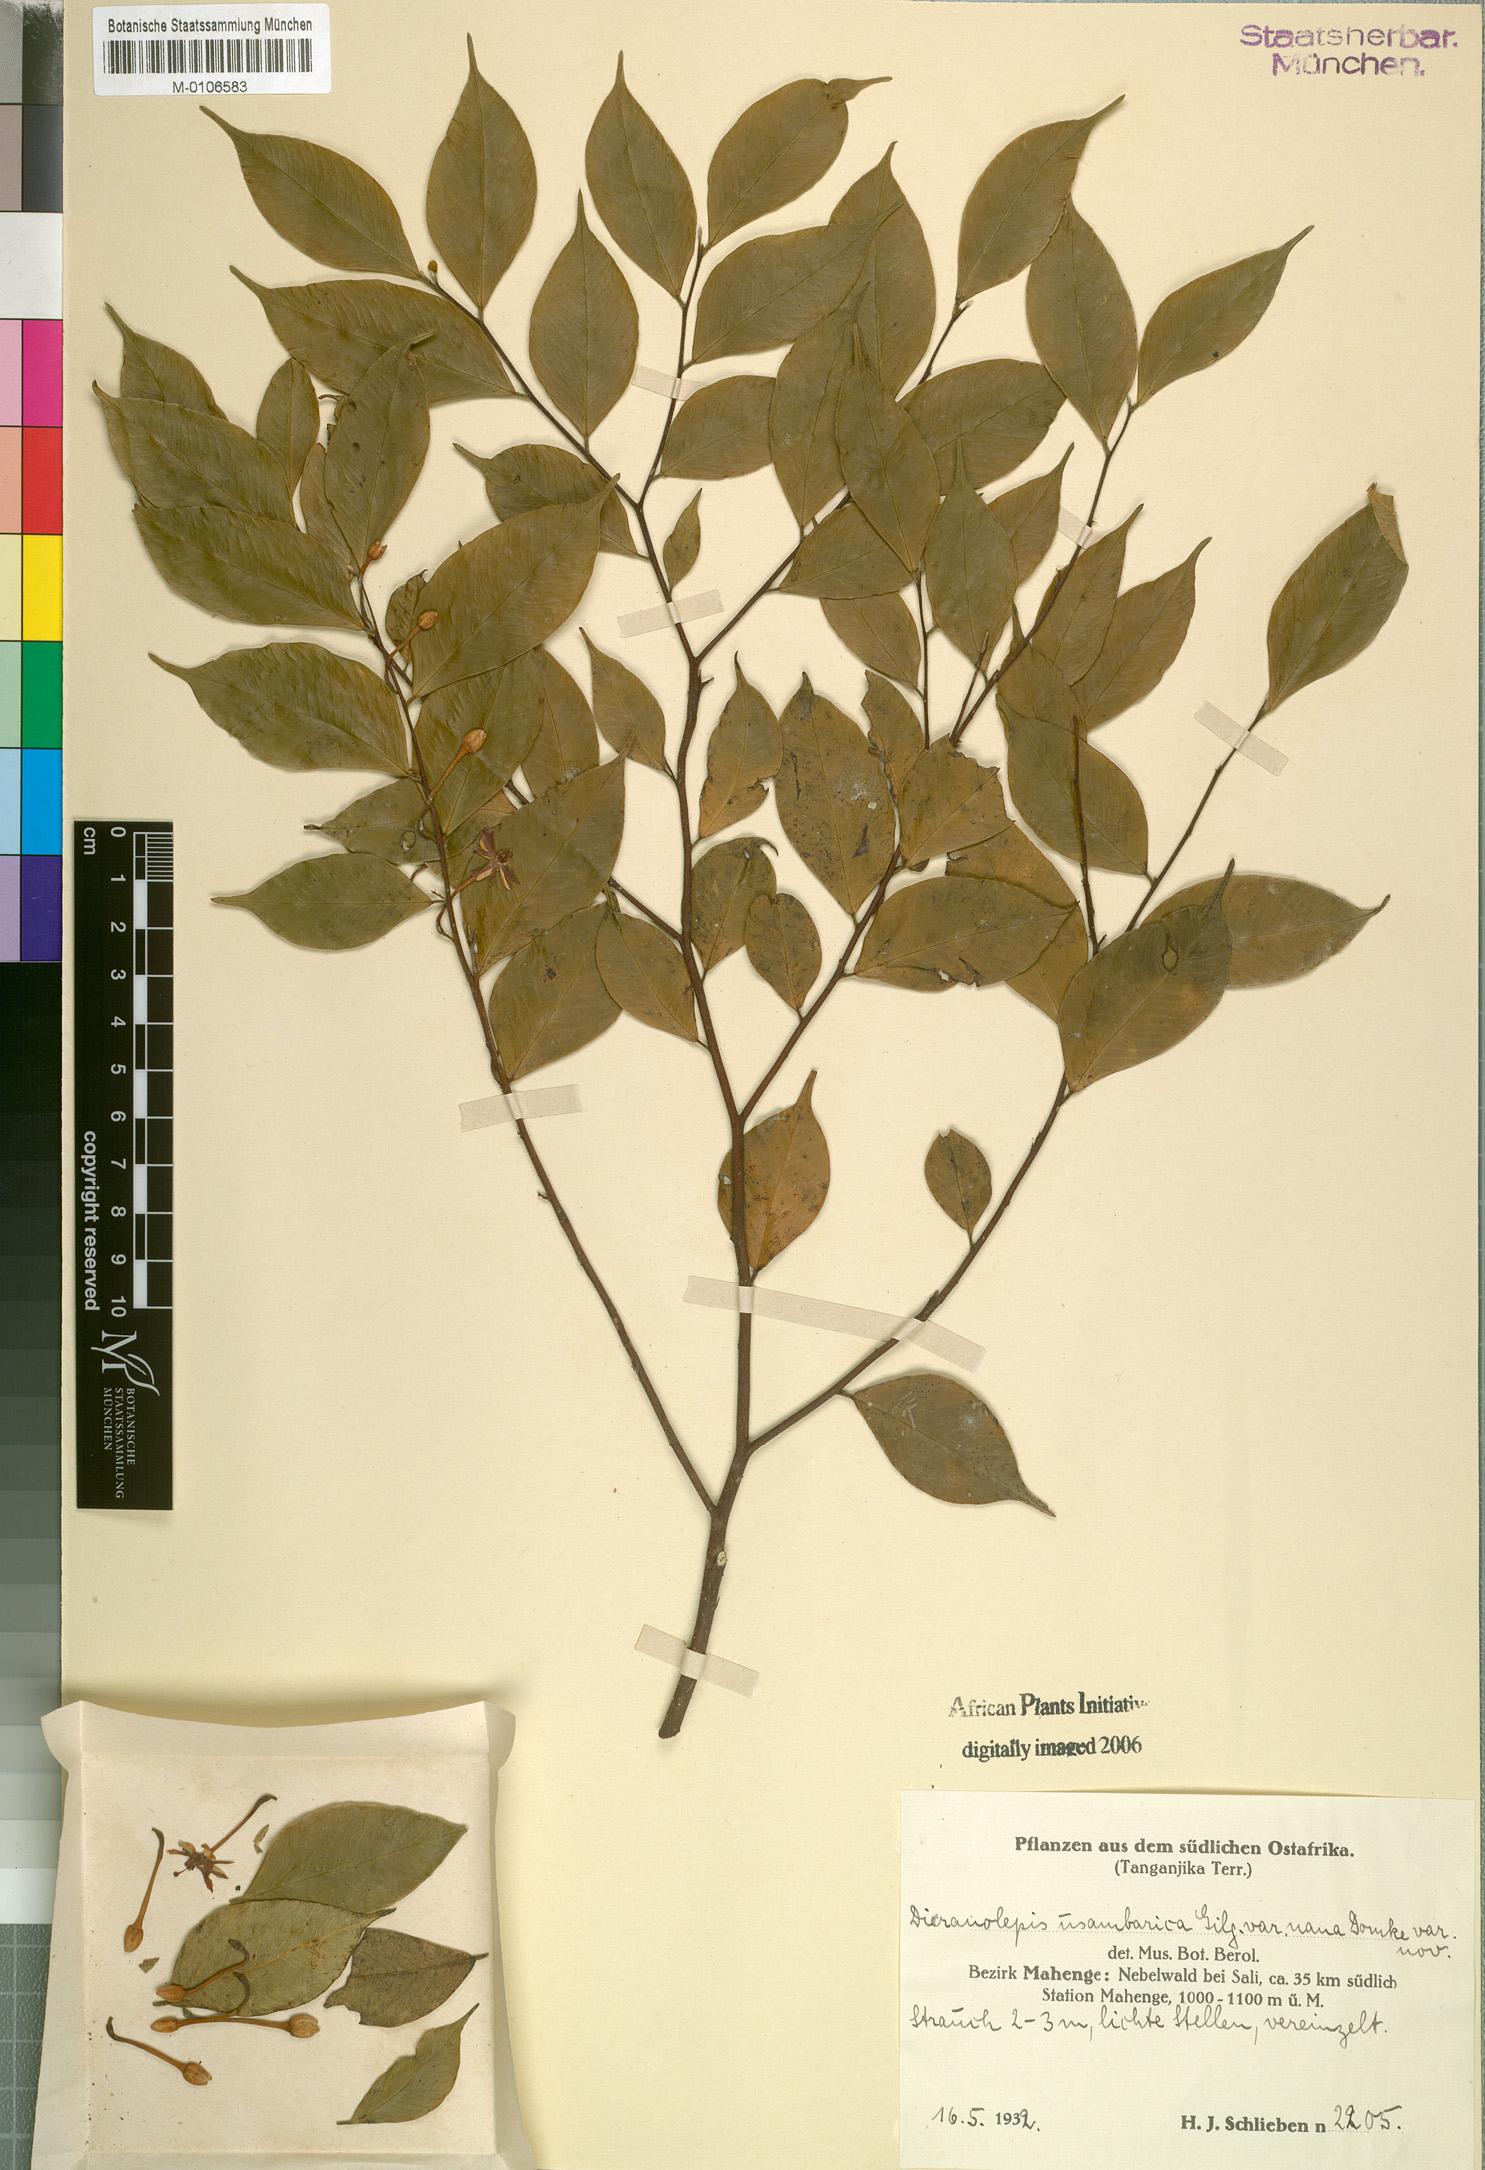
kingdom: Plantae
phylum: Tracheophyta
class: Magnoliopsida
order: Malvales
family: Thymelaeaceae
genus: Dicranolepis
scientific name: Dicranolepis usambarica
